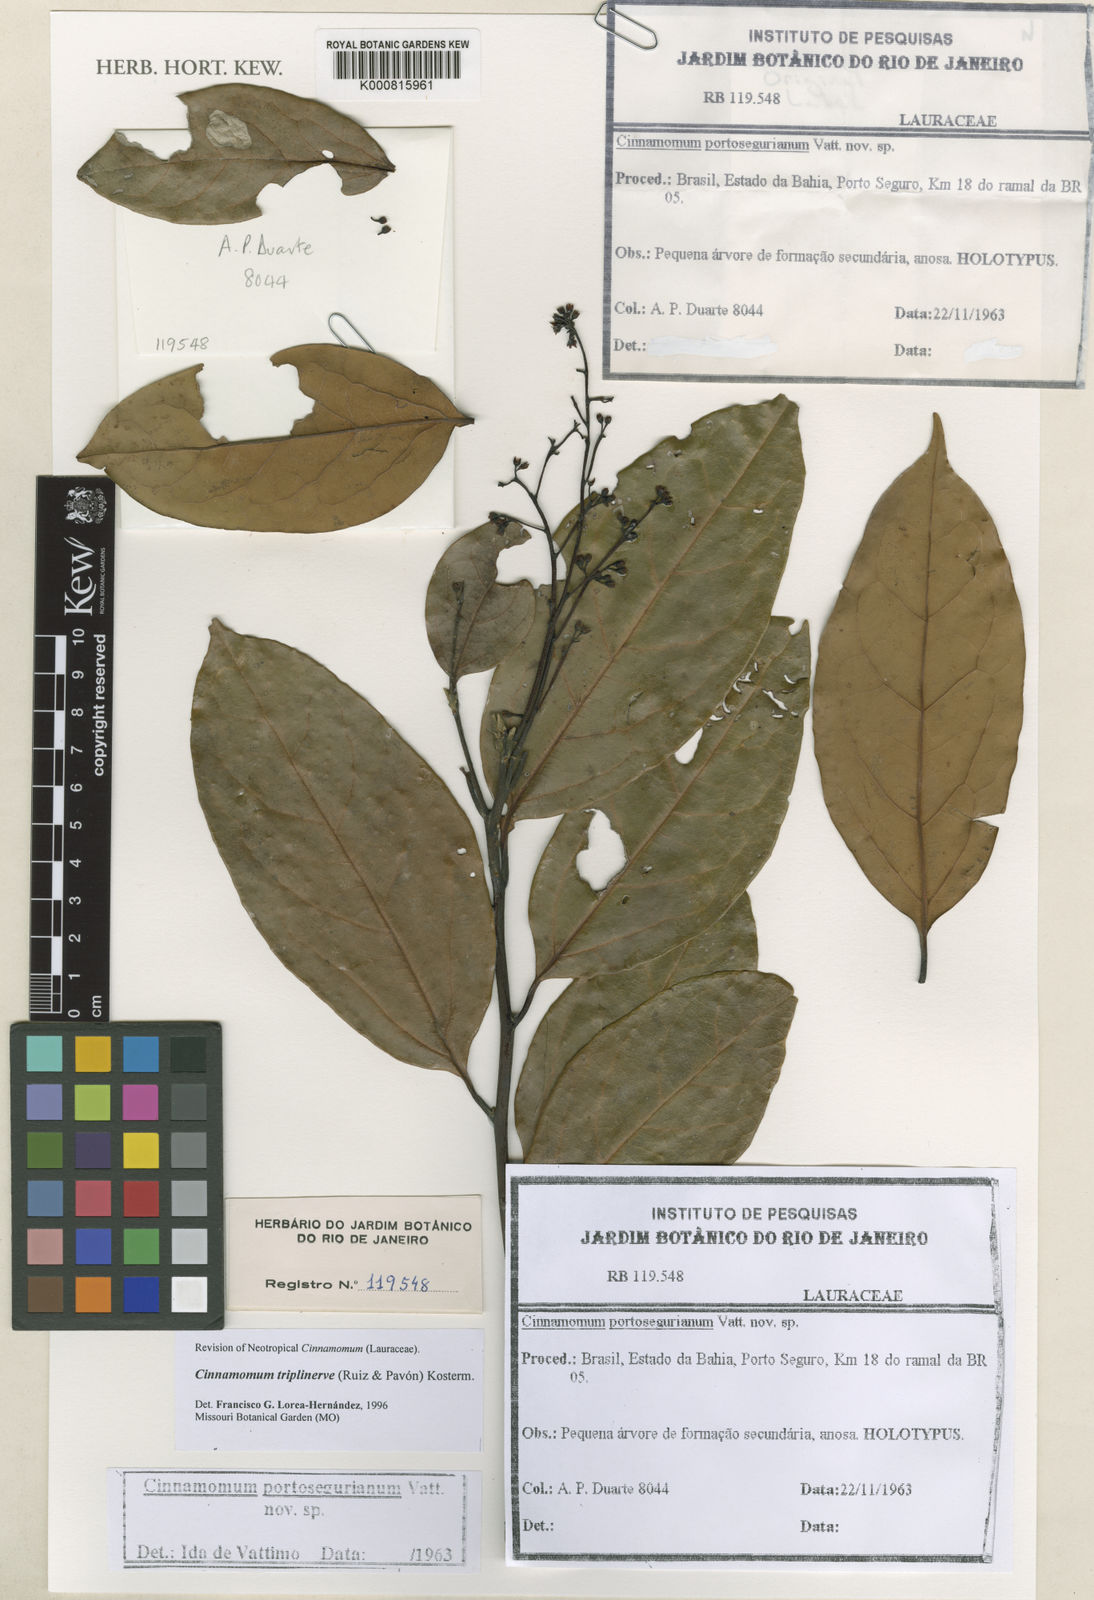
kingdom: Plantae
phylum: Tracheophyta
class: Magnoliopsida
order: Laurales
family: Lauraceae
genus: Aiouea
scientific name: Aiouea montana
